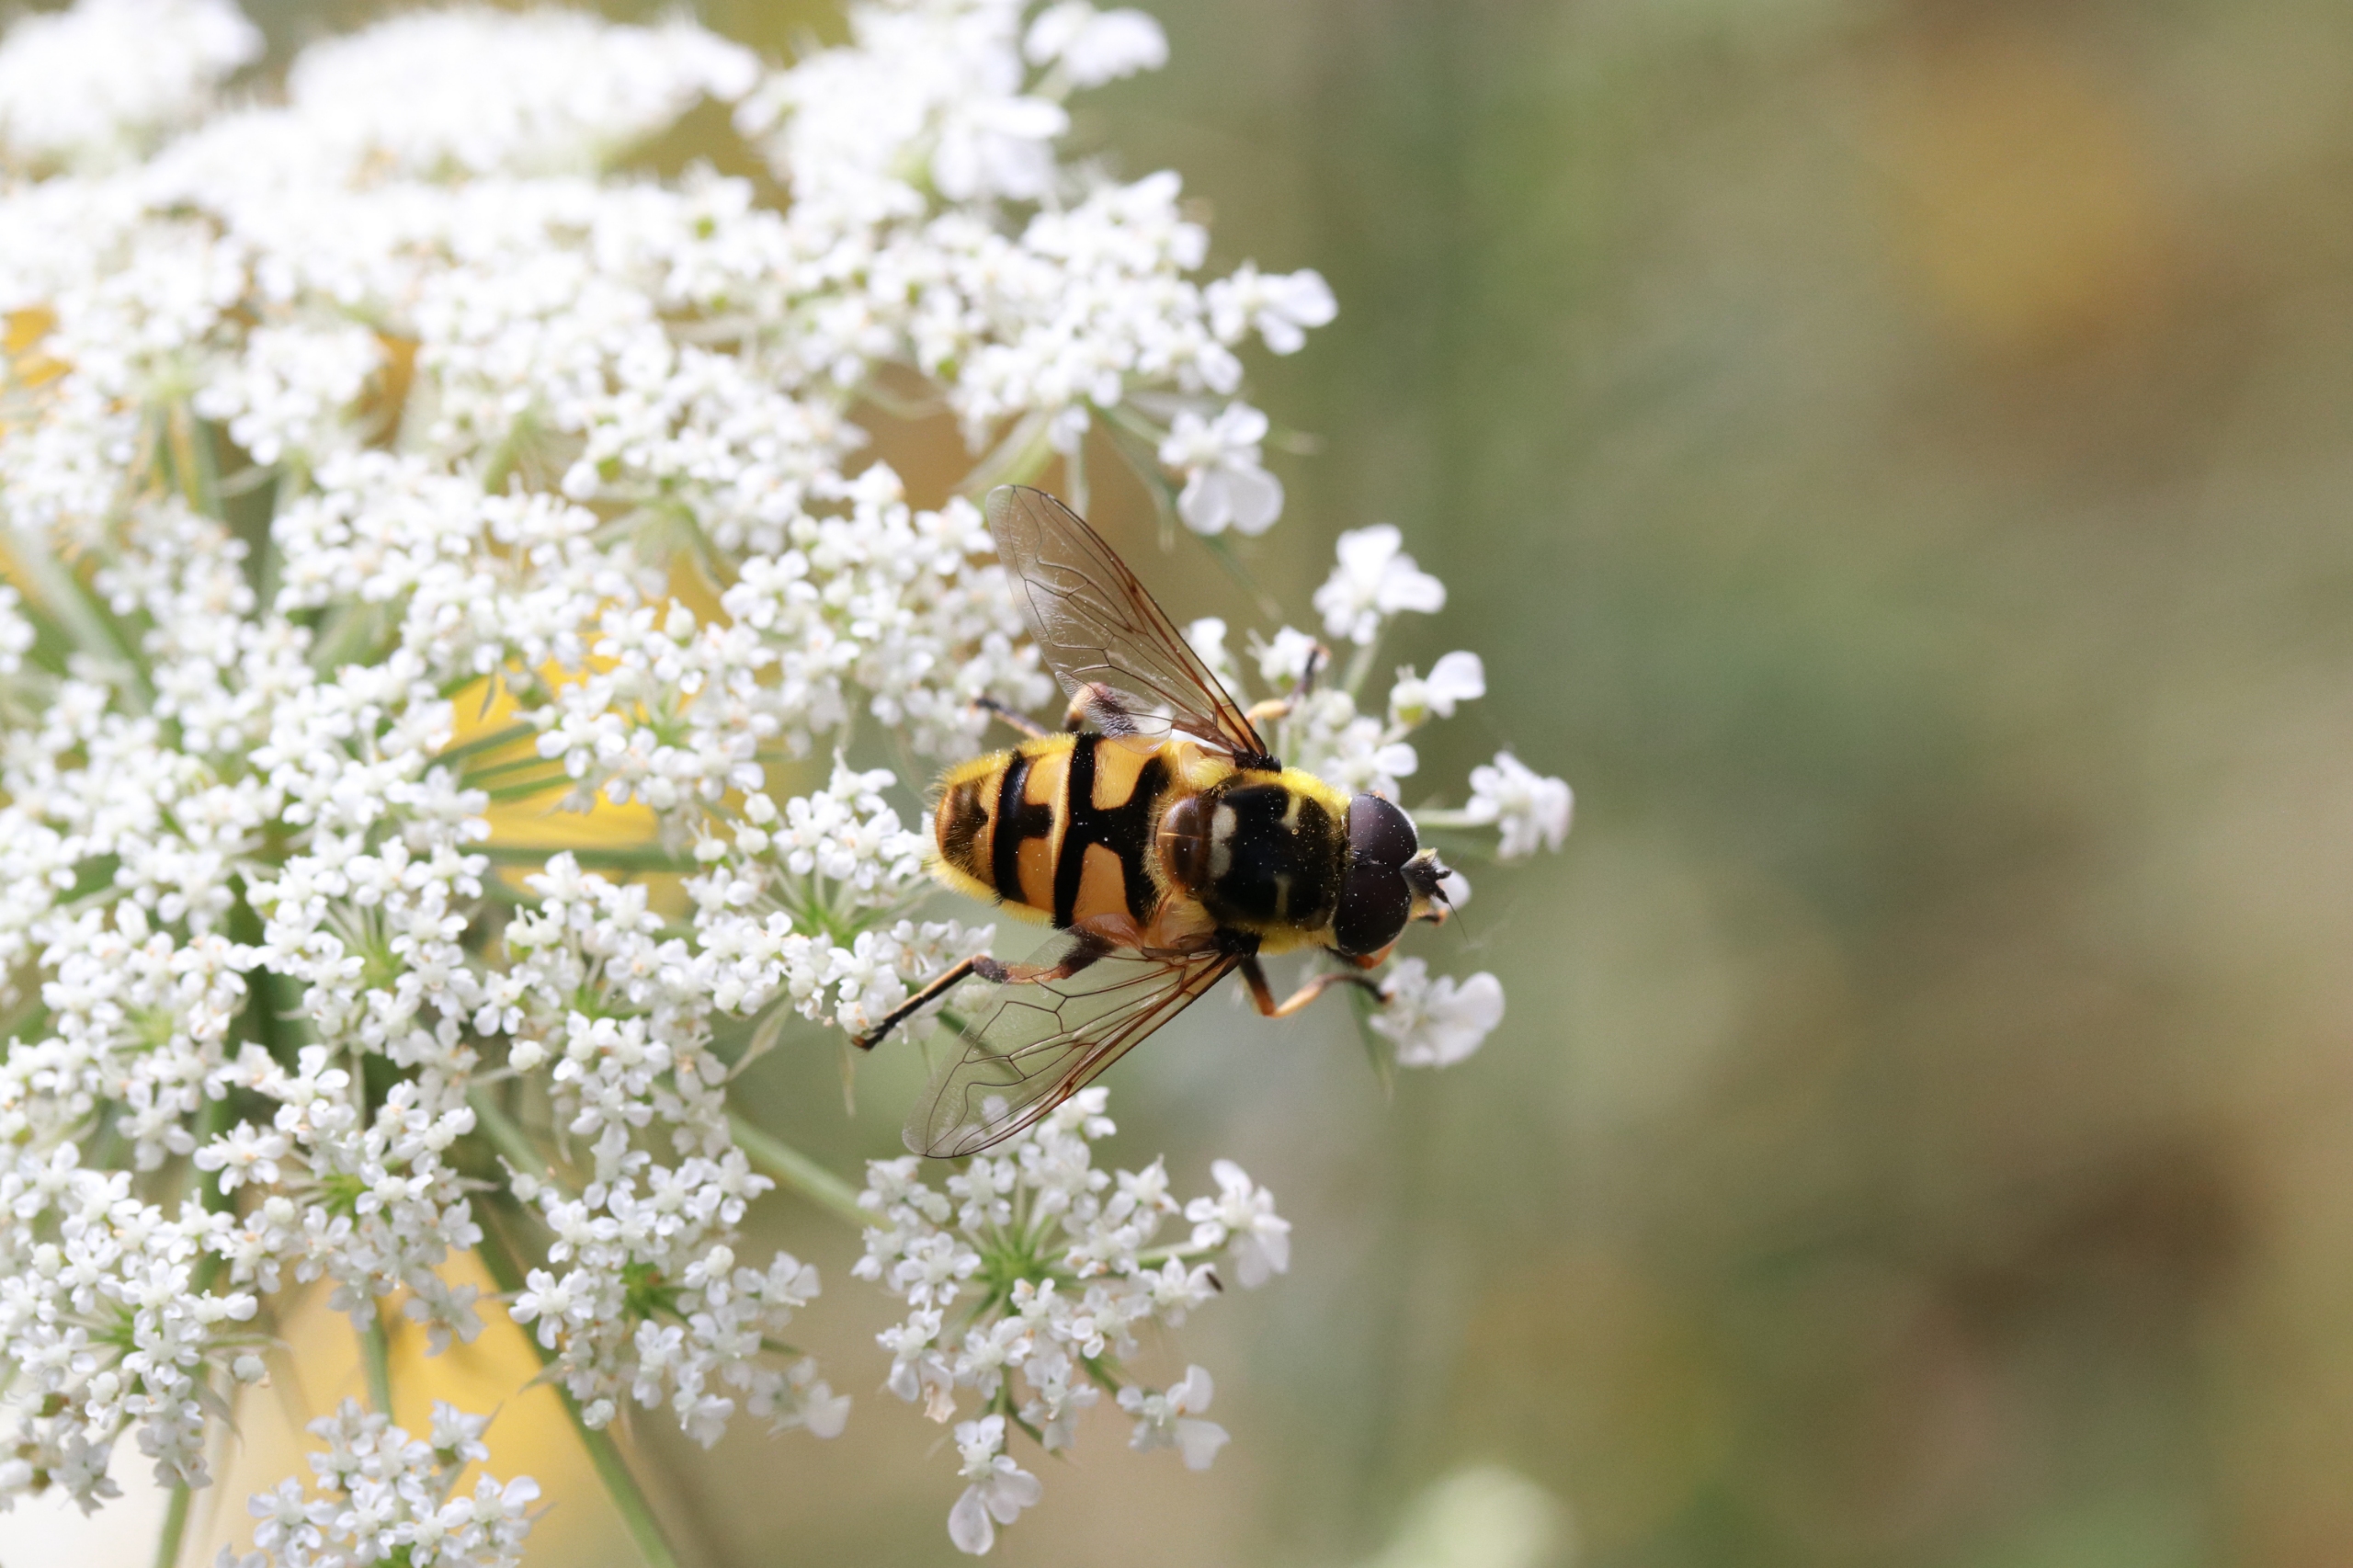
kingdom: Animalia
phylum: Arthropoda
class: Insecta
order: Diptera
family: Syrphidae
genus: Myathropa
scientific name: Myathropa florea
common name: Dødningehoved-svirreflue
